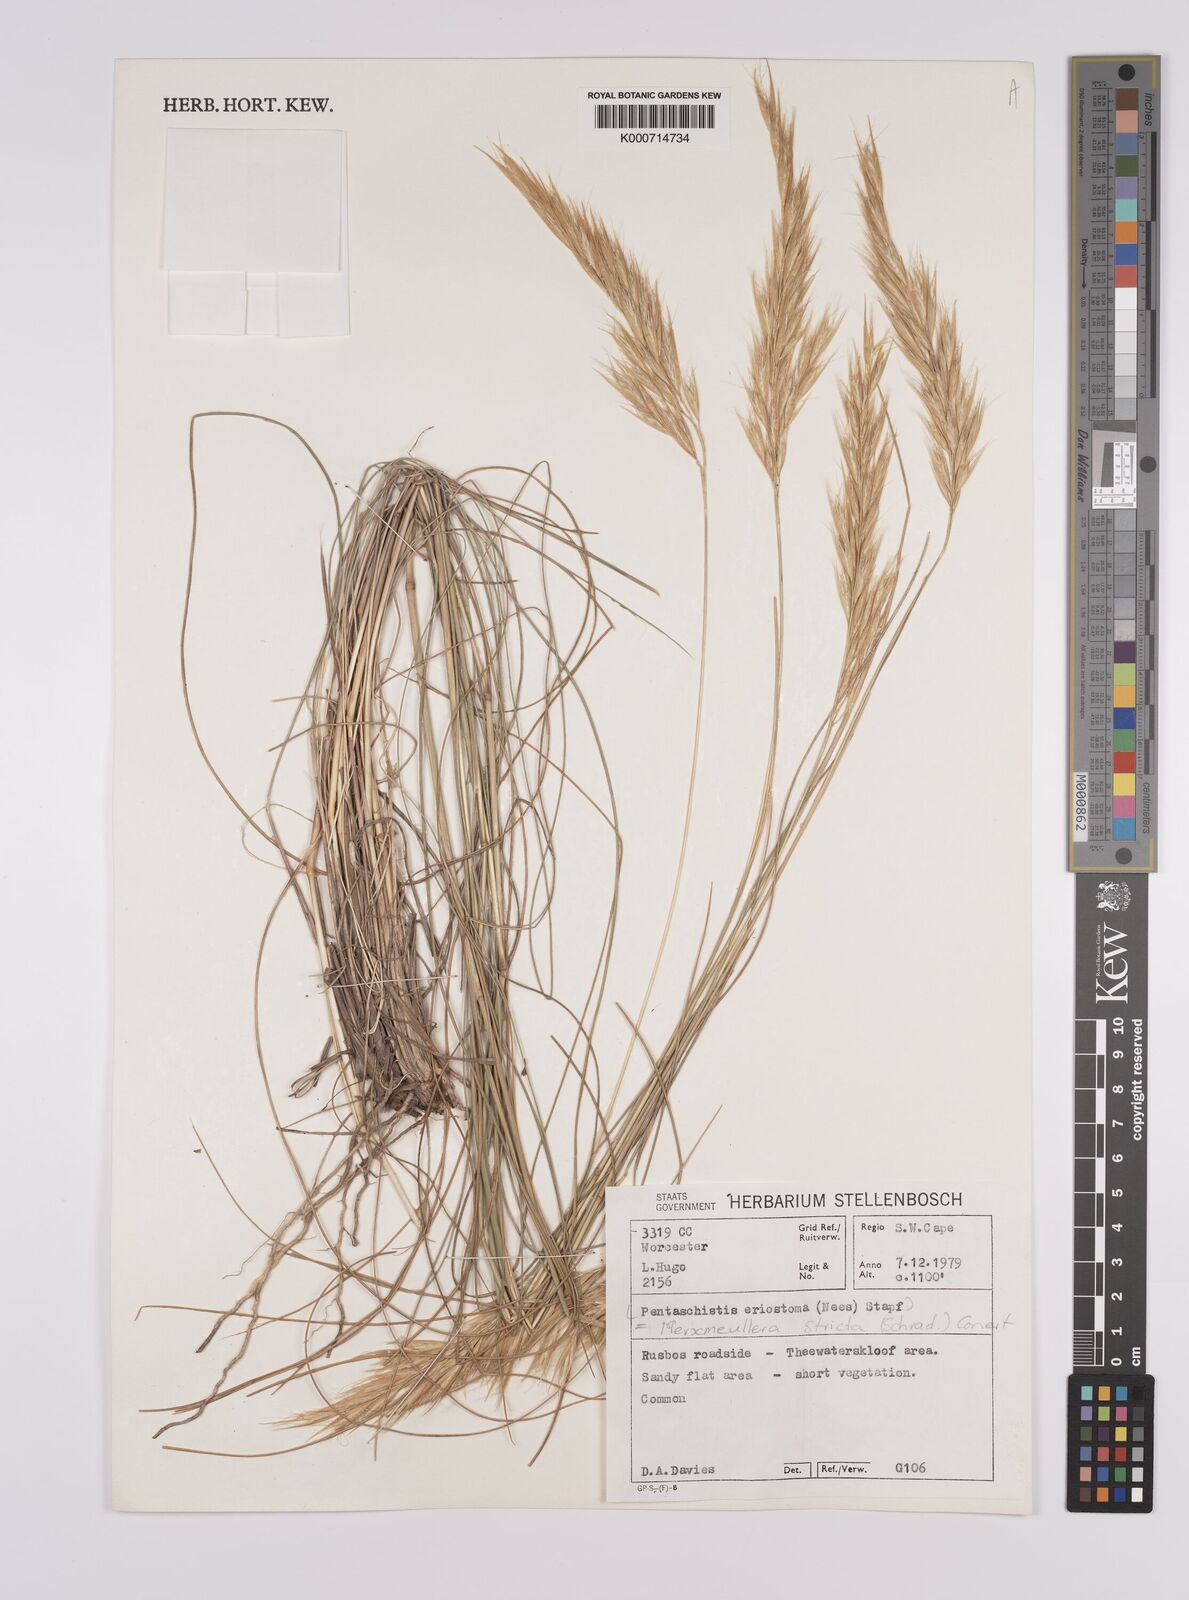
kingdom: Plantae
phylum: Tracheophyta
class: Liliopsida
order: Poales
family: Poaceae
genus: Rytidosperma
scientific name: Rytidosperma
